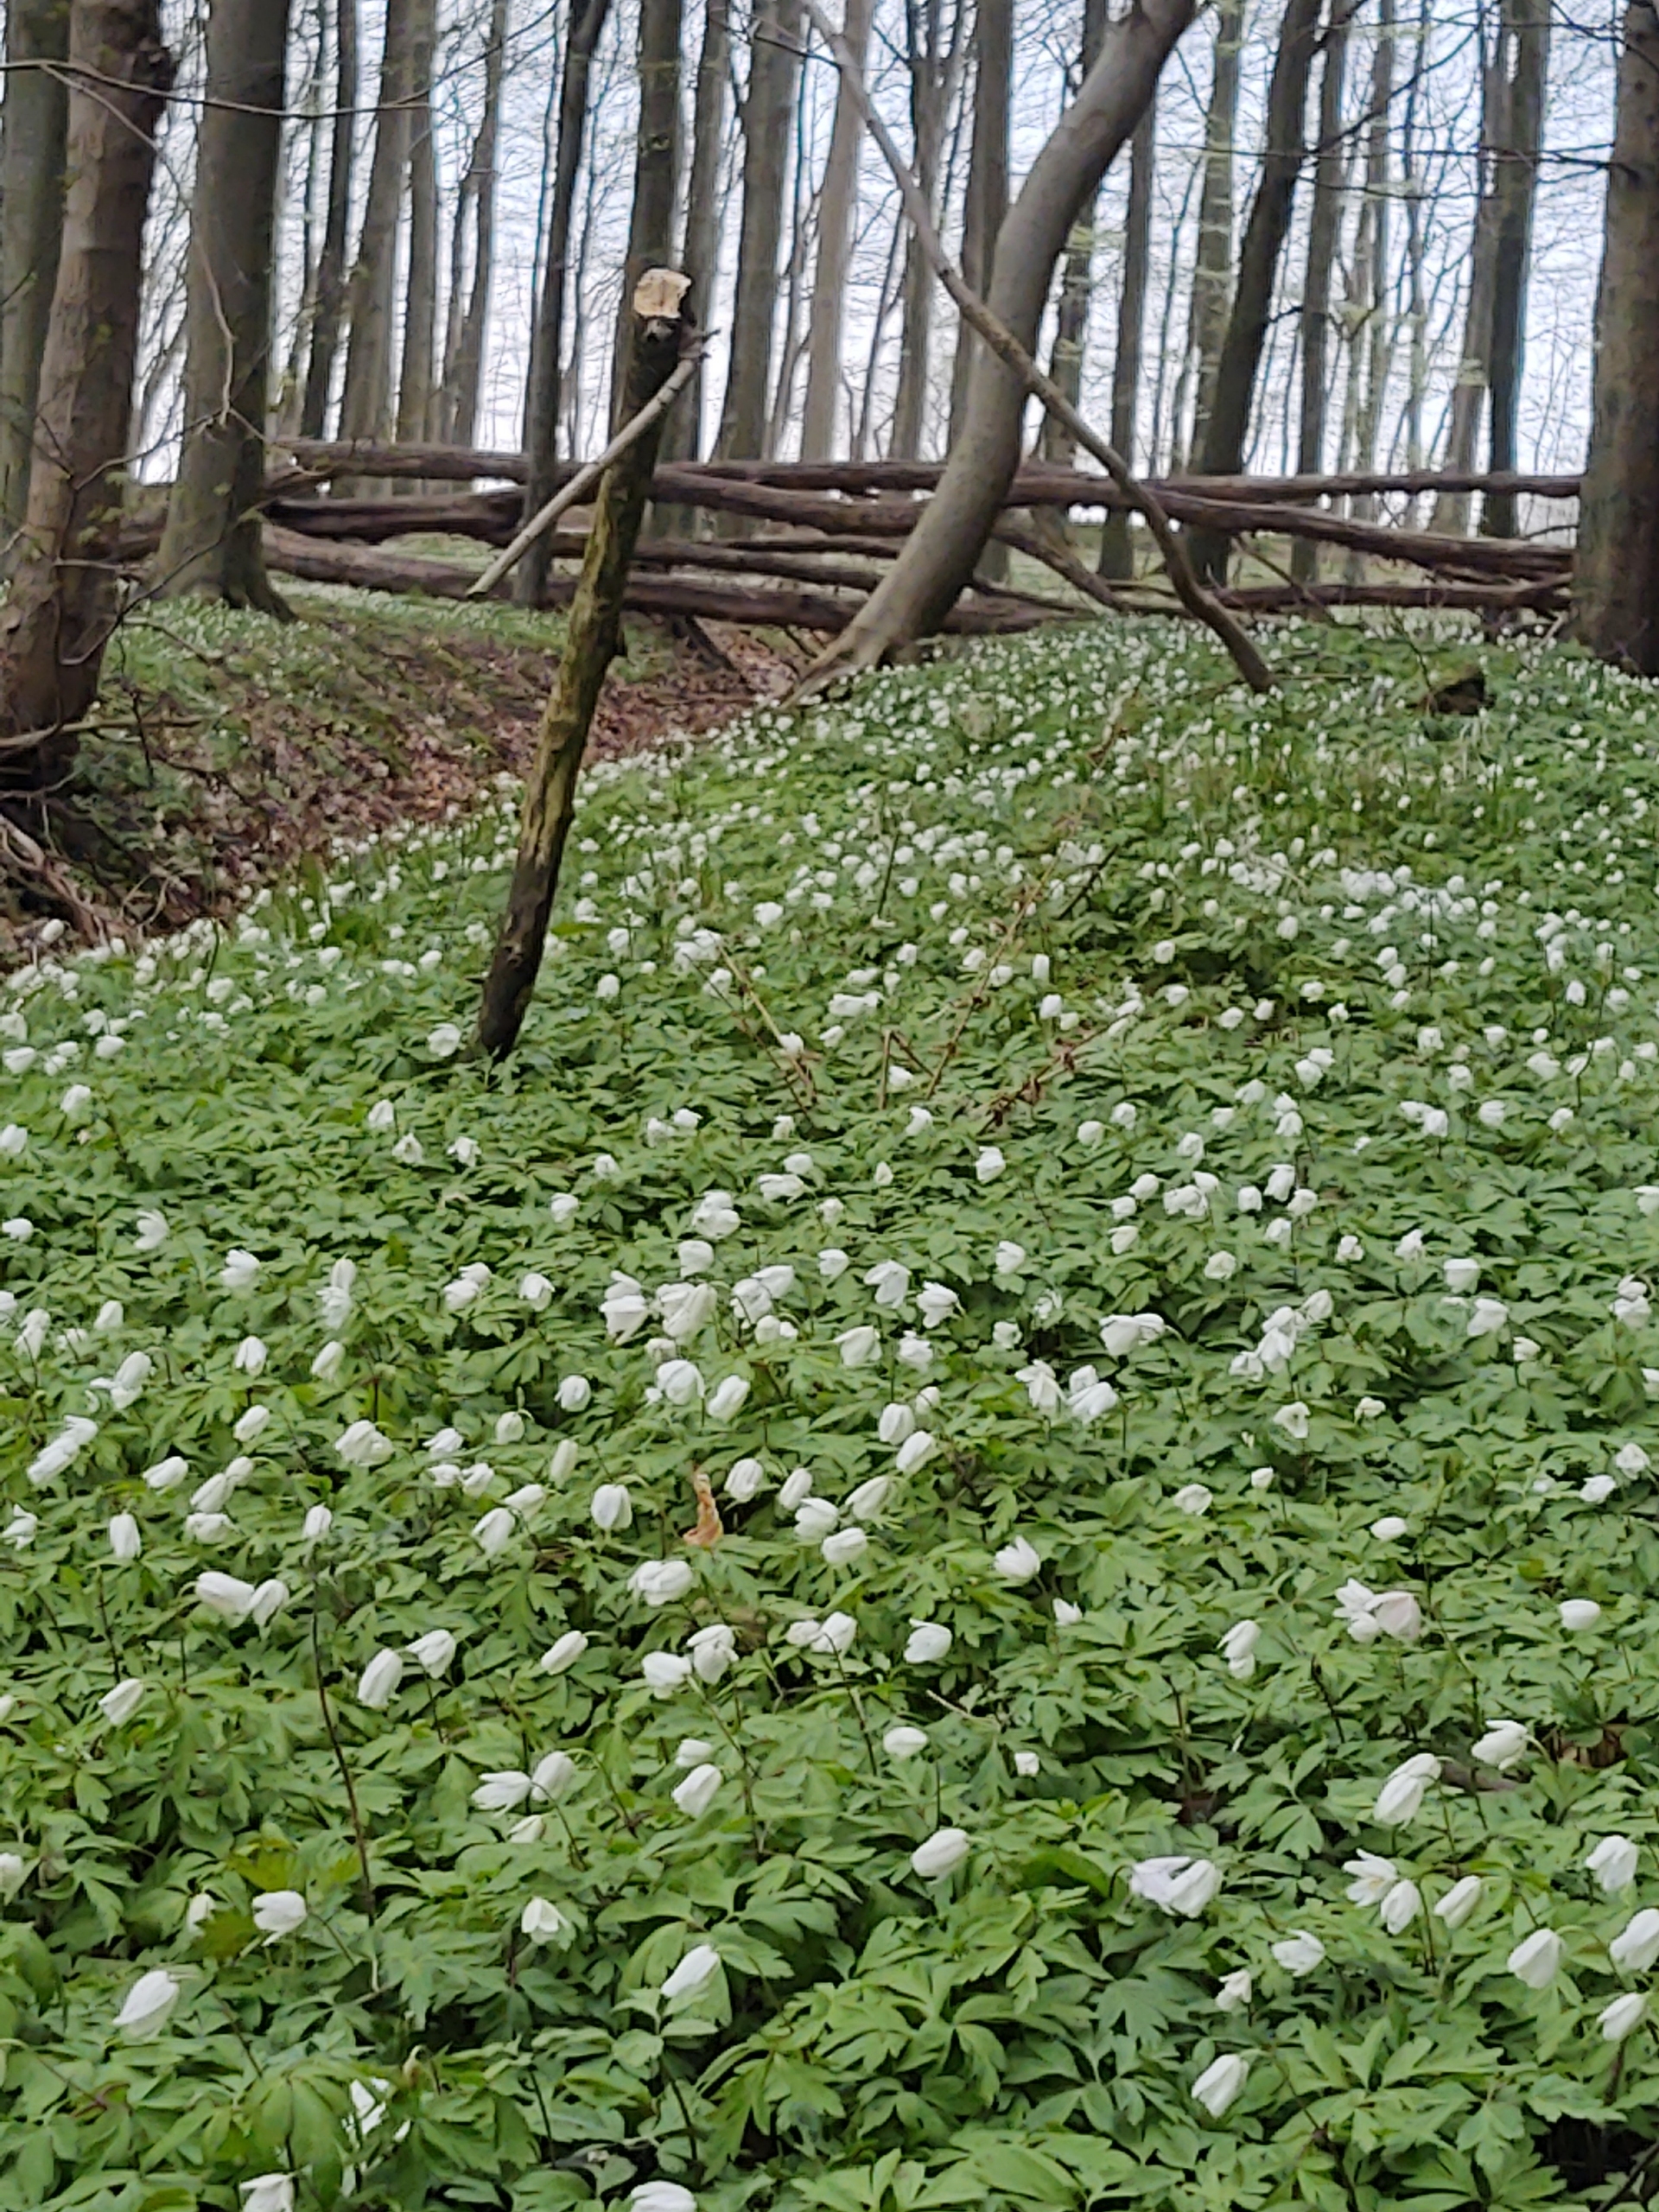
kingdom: Plantae
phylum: Tracheophyta
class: Magnoliopsida
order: Ranunculales
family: Ranunculaceae
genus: Anemone
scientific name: Anemone nemorosa
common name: Hvid anemone
